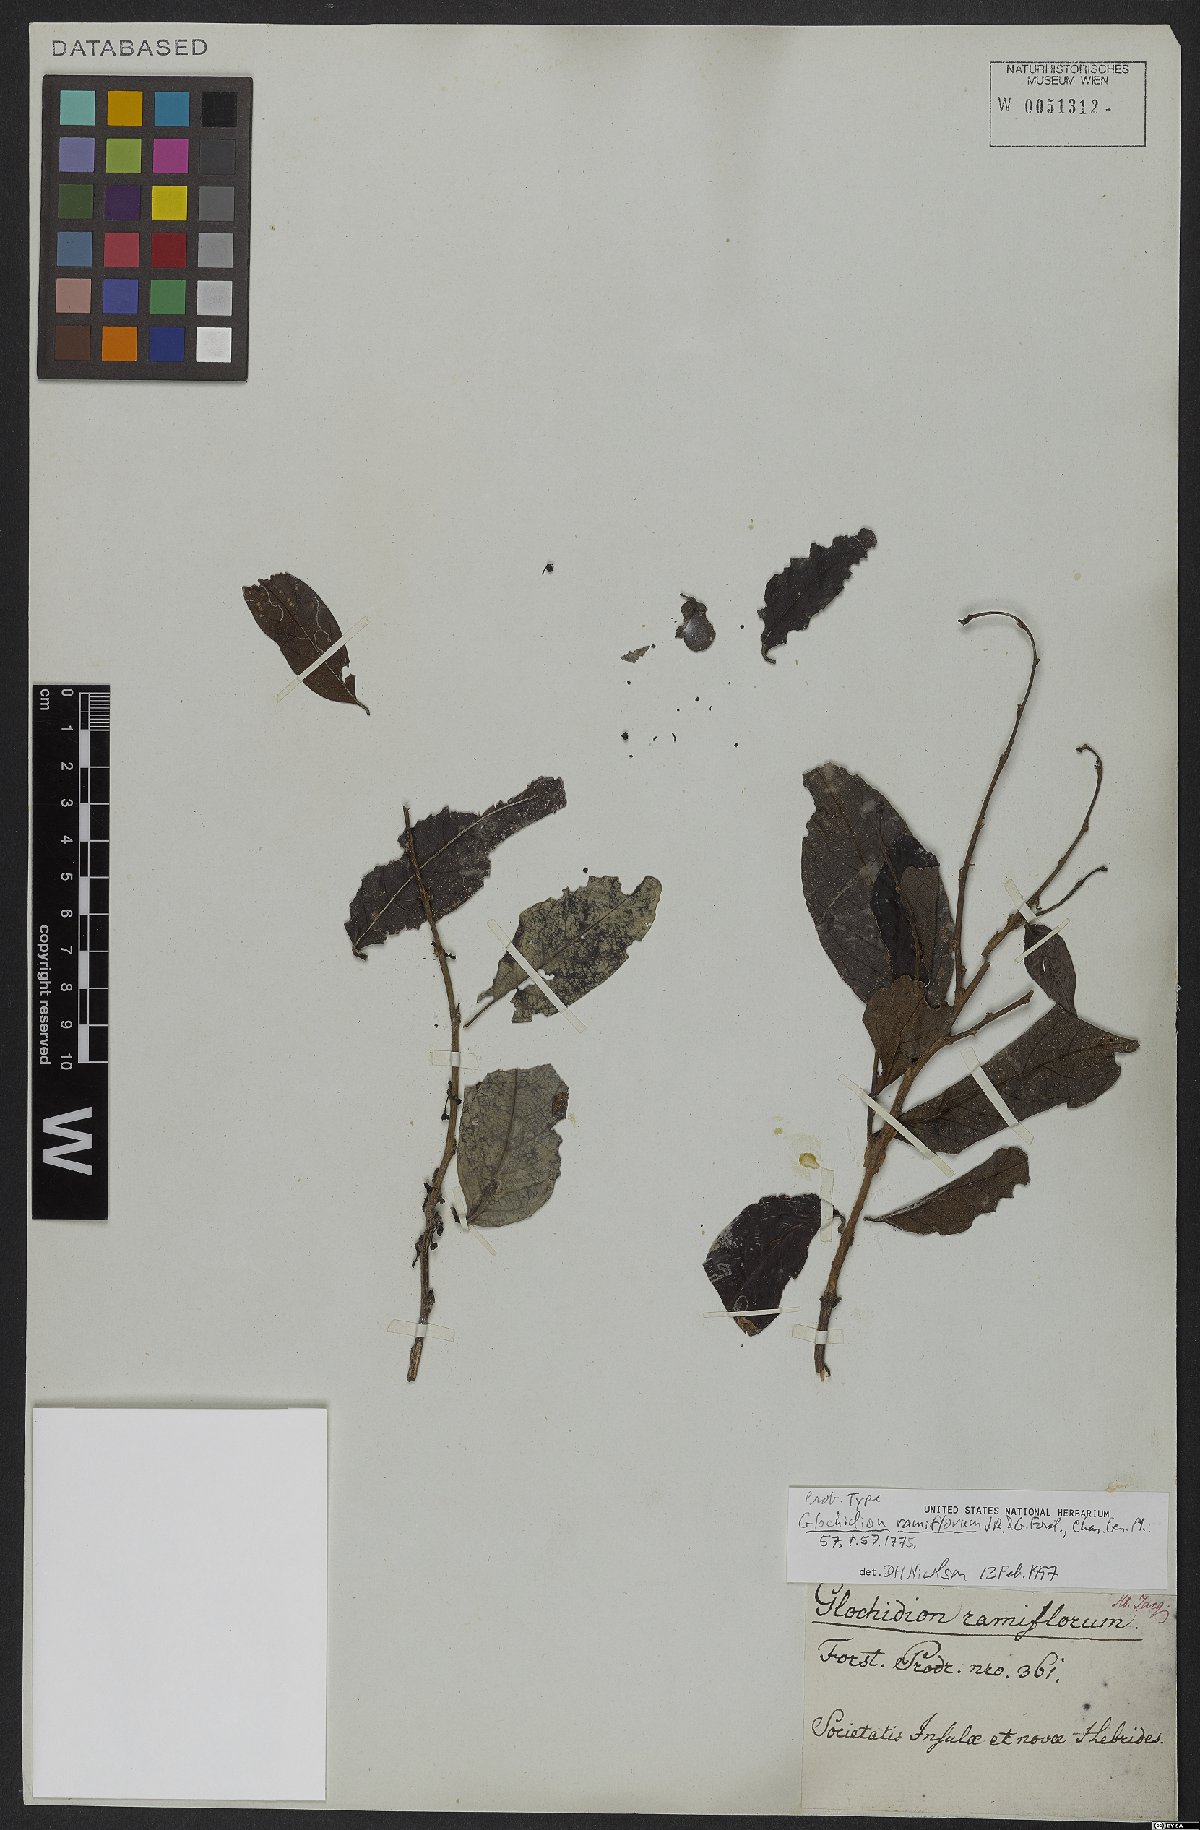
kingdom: Plantae
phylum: Tracheophyta
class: Magnoliopsida
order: Malpighiales
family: Phyllanthaceae
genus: Glochidion
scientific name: Glochidion ramiflorum
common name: Masame
